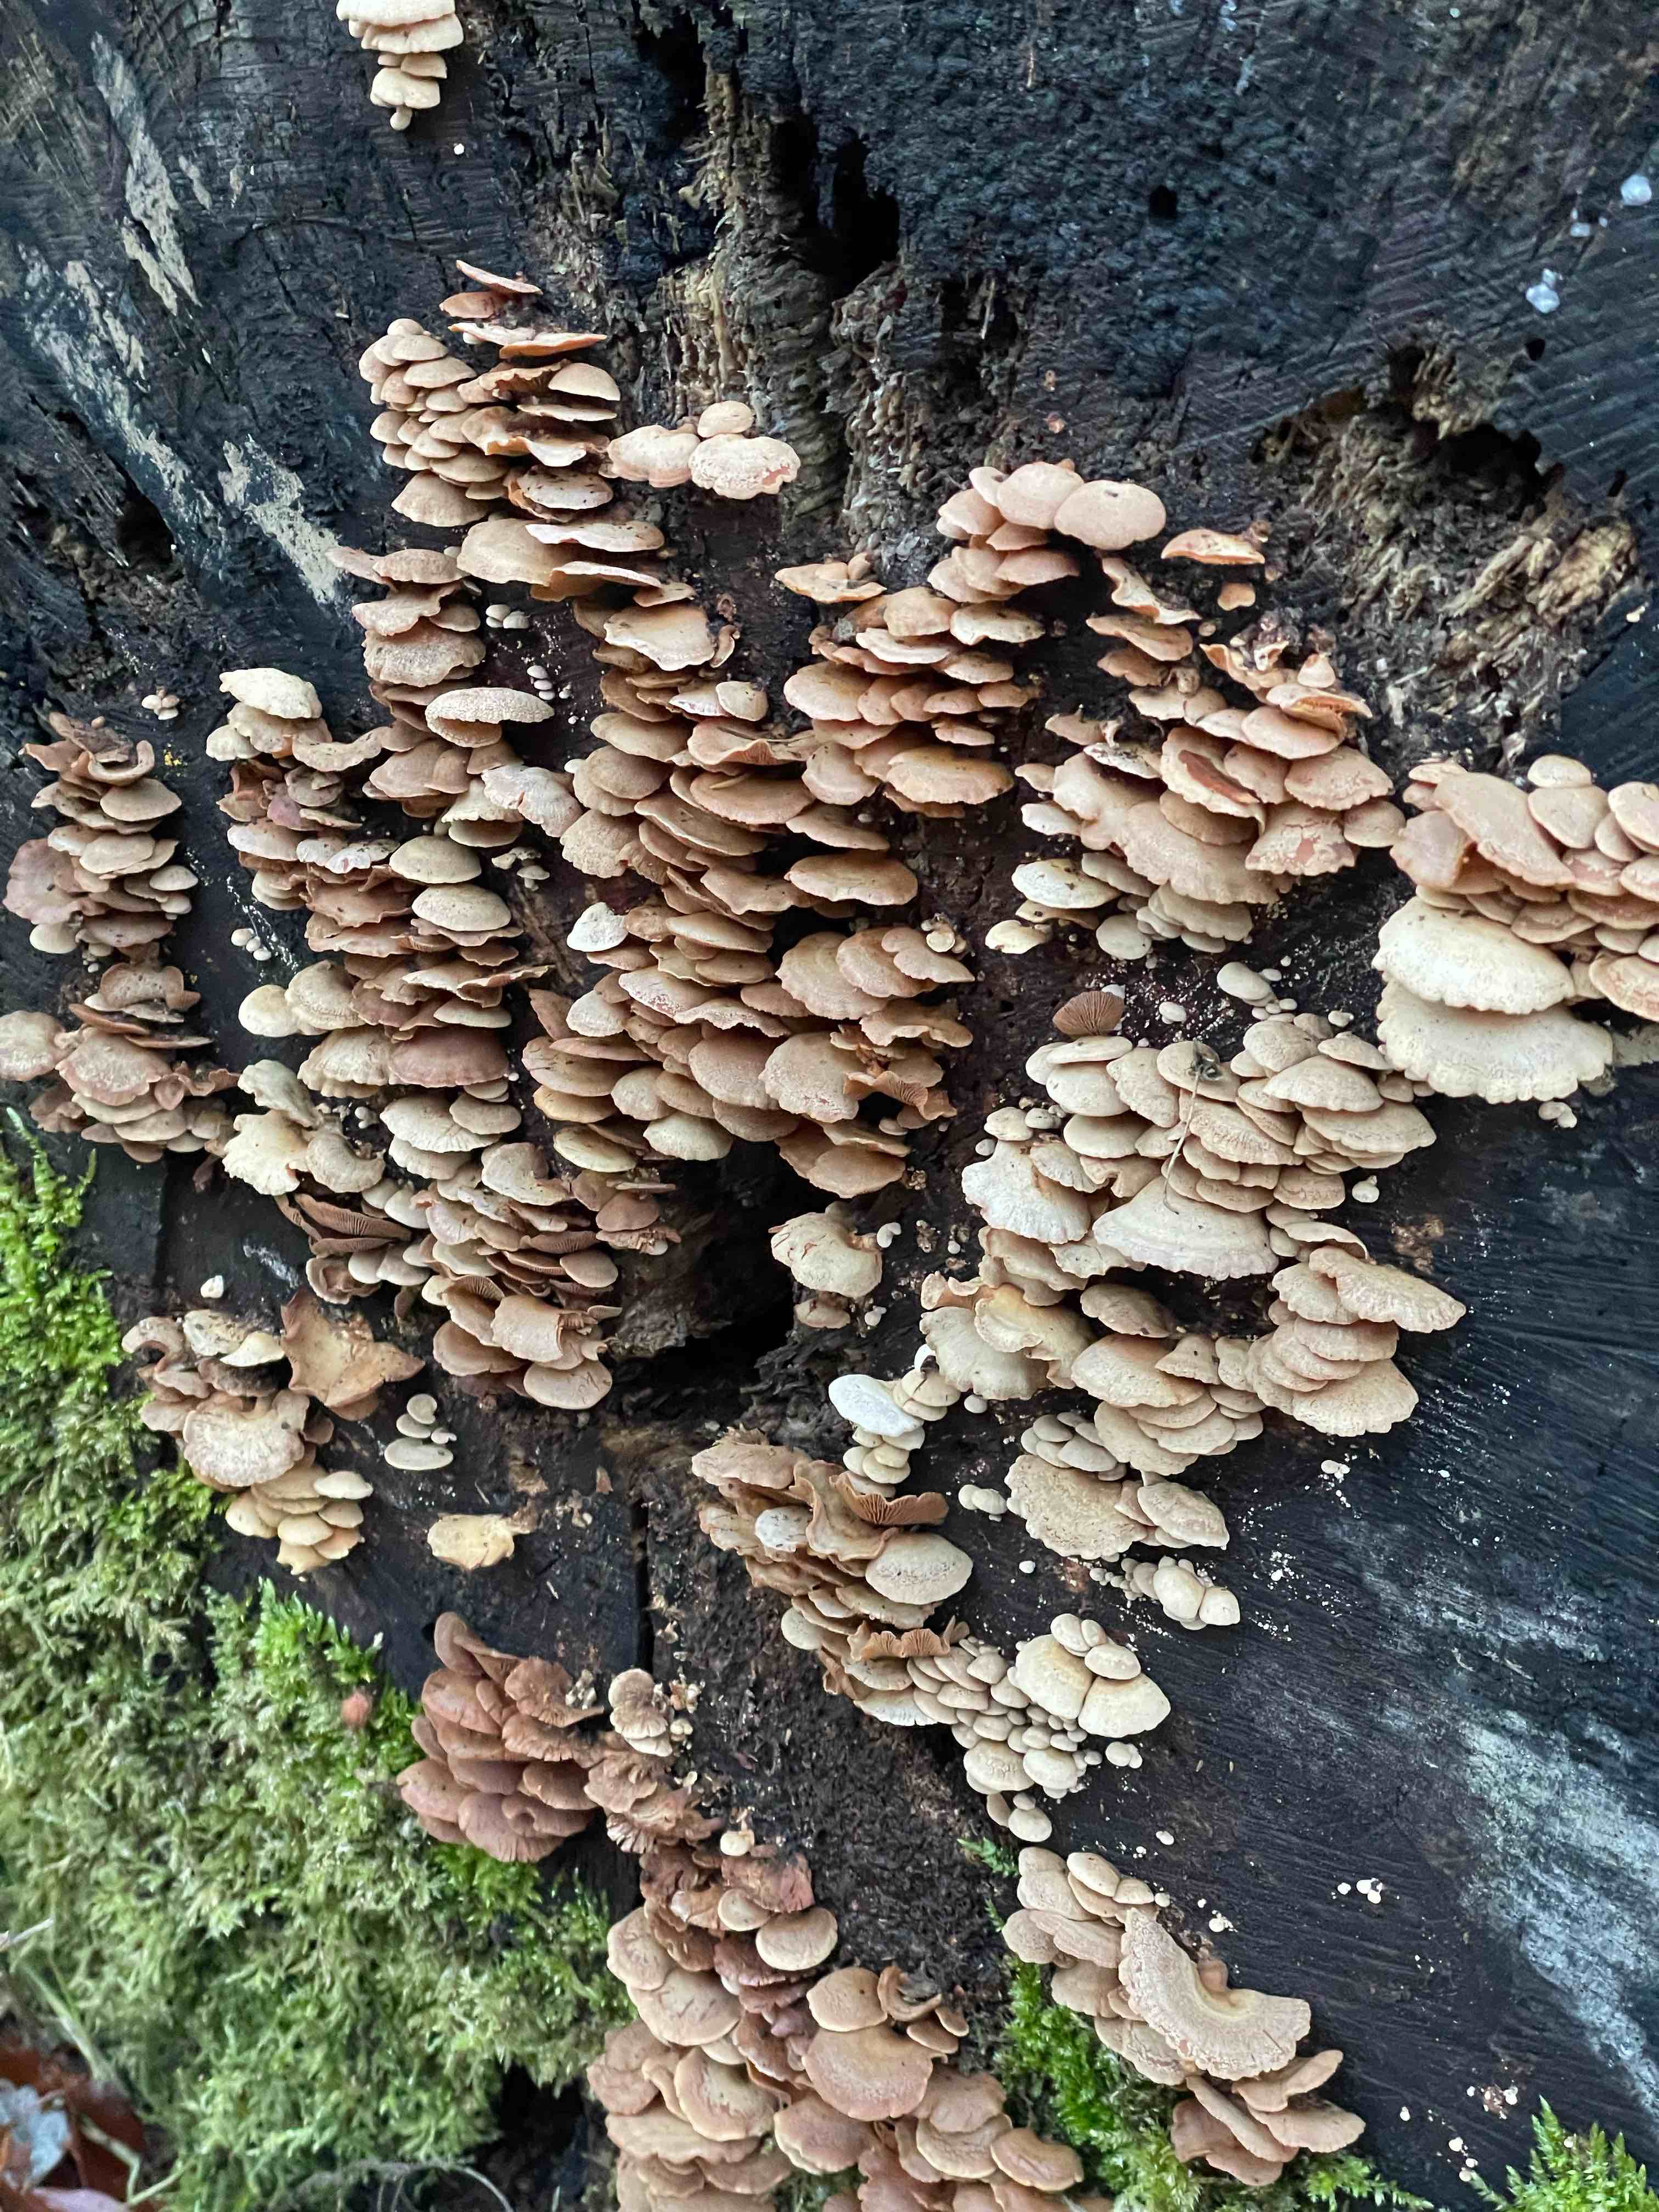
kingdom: Fungi
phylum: Basidiomycota
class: Agaricomycetes
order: Agaricales
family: Mycenaceae
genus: Panellus
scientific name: Panellus stipticus
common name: kliddet epaulethat
